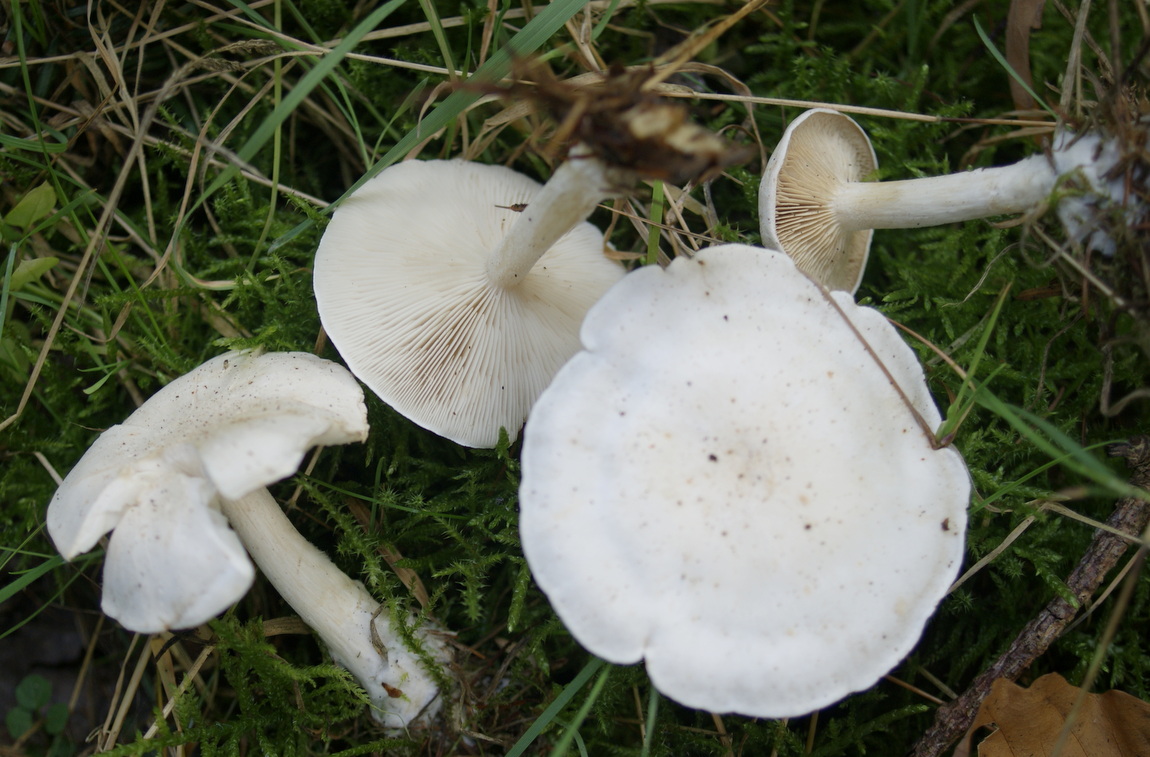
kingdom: Fungi
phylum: Basidiomycota
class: Agaricomycetes
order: Agaricales
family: Tricholomataceae
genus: Clitocybe
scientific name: Clitocybe phyllophila
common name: løv-tragthat
